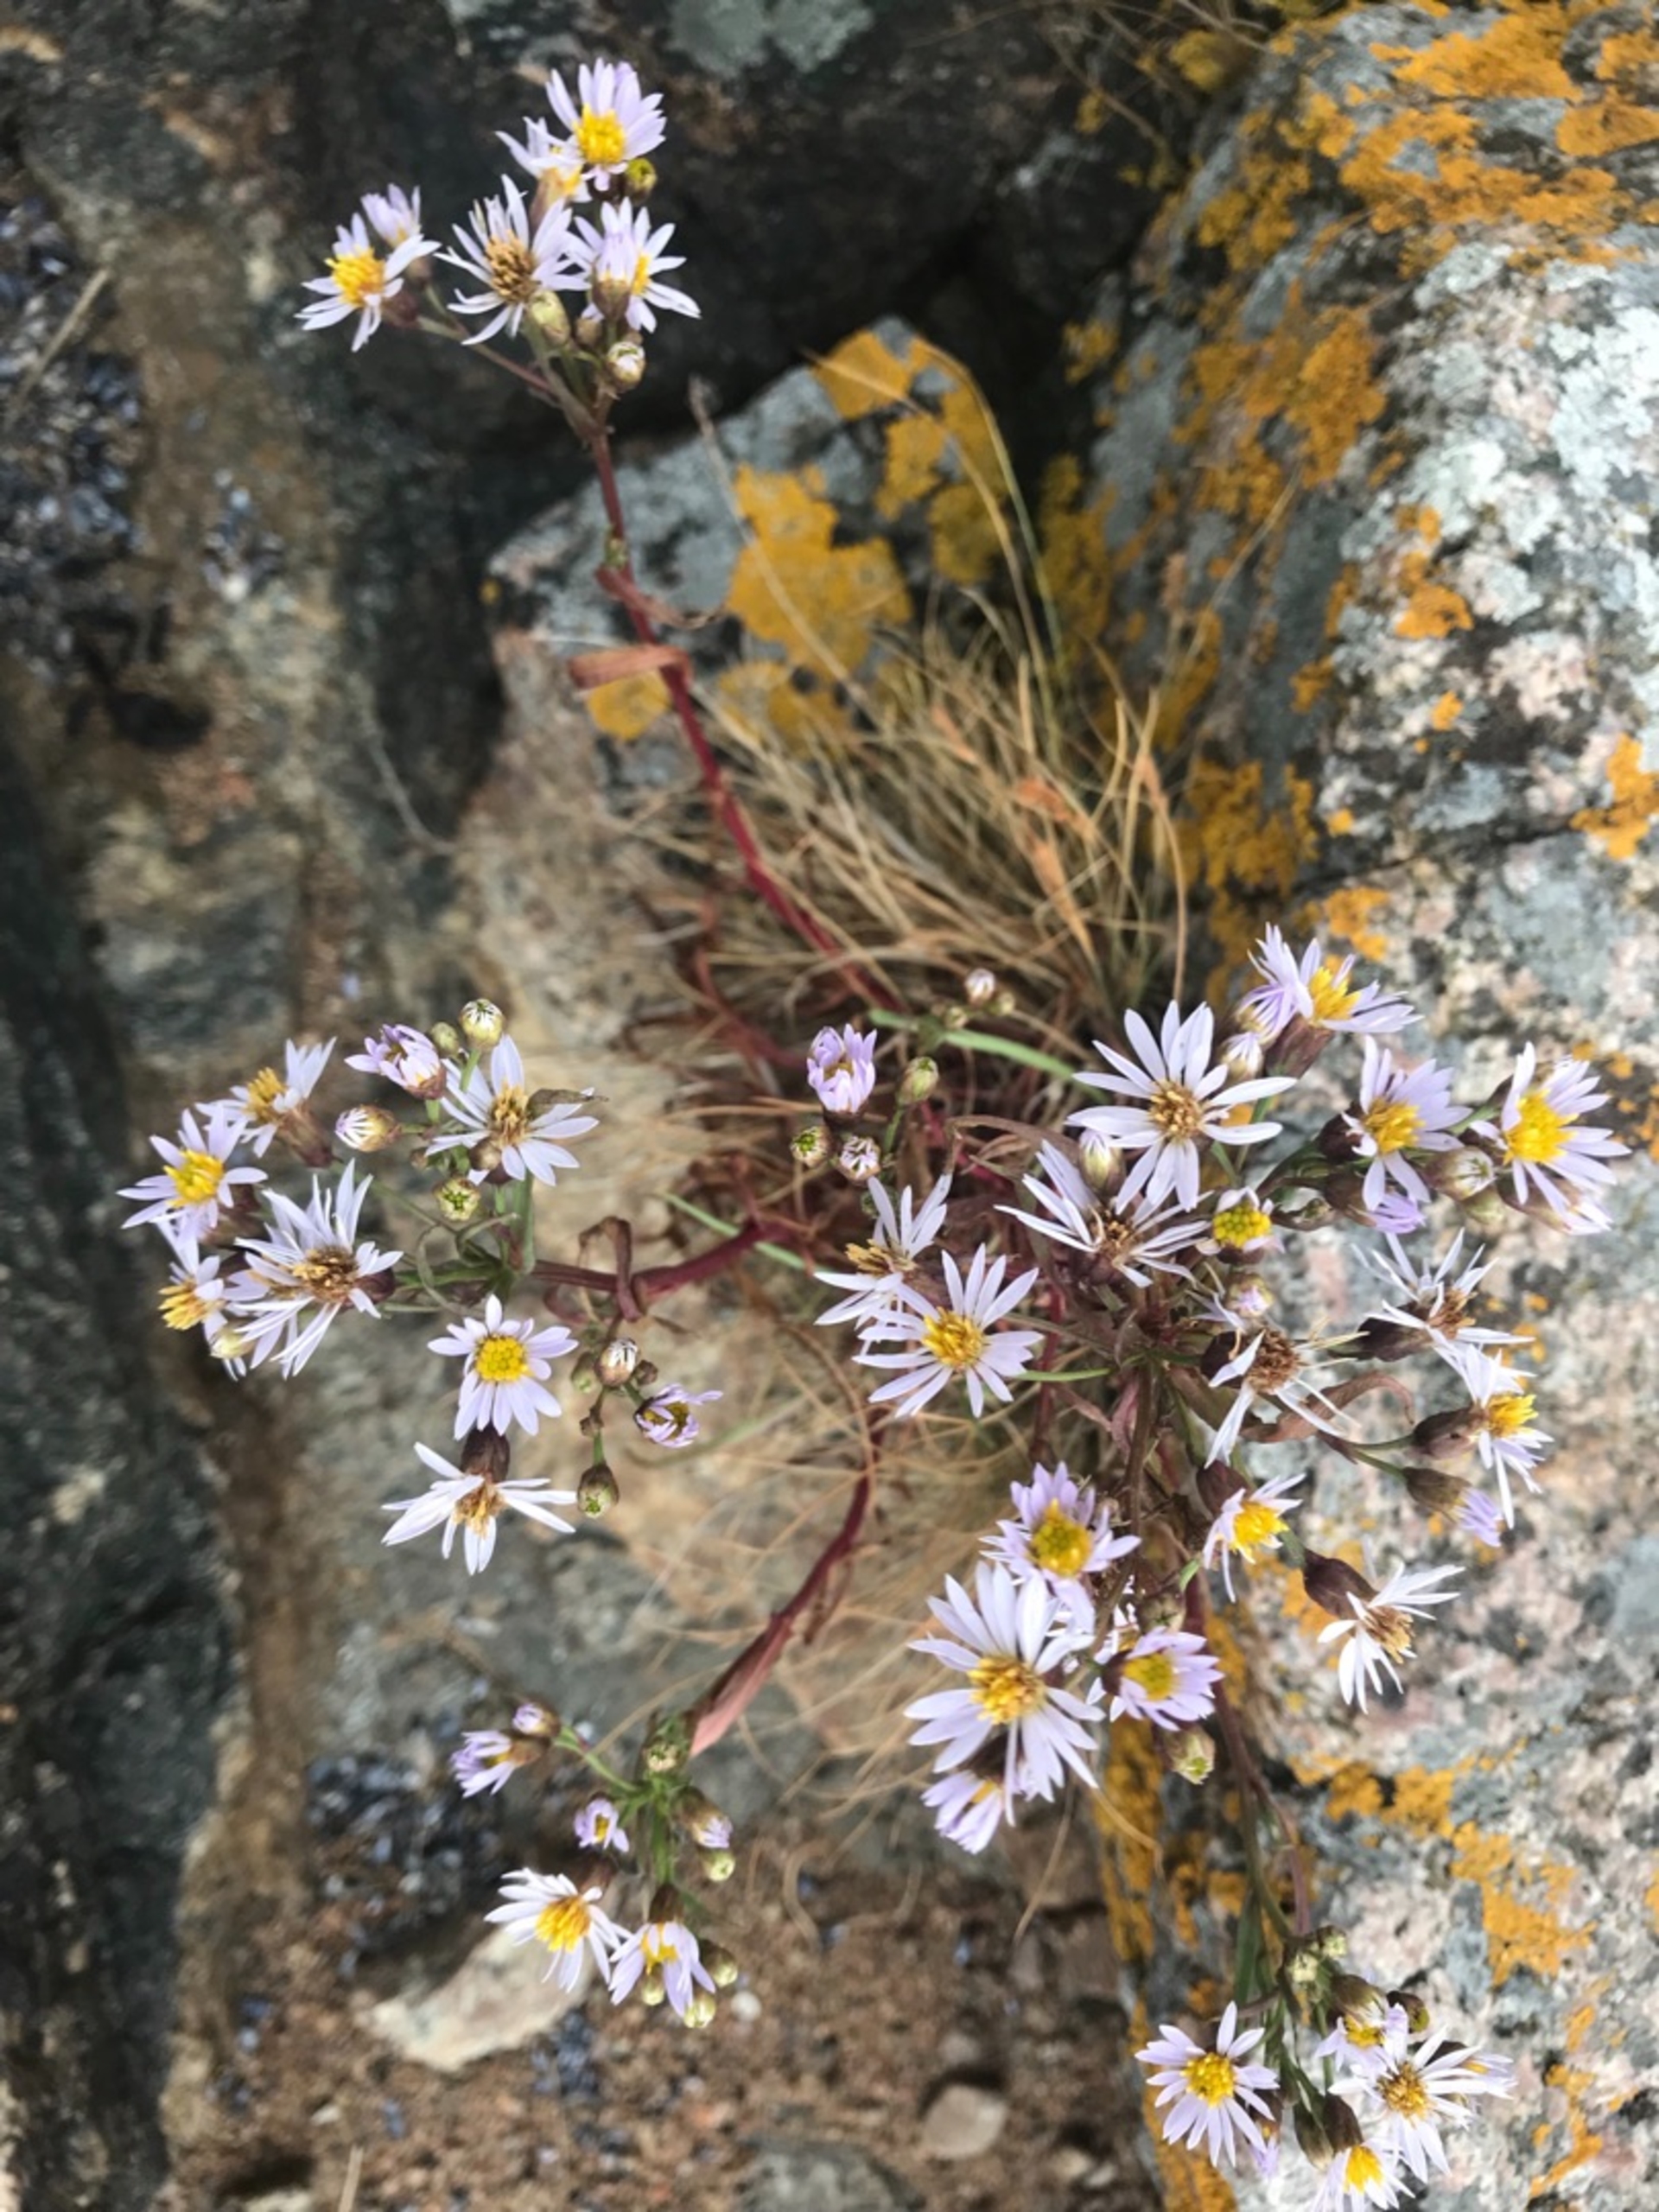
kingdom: Plantae
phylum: Tracheophyta
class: Magnoliopsida
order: Asterales
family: Asteraceae
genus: Tripolium
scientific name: Tripolium pannonicum
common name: Strandasters (underart)
